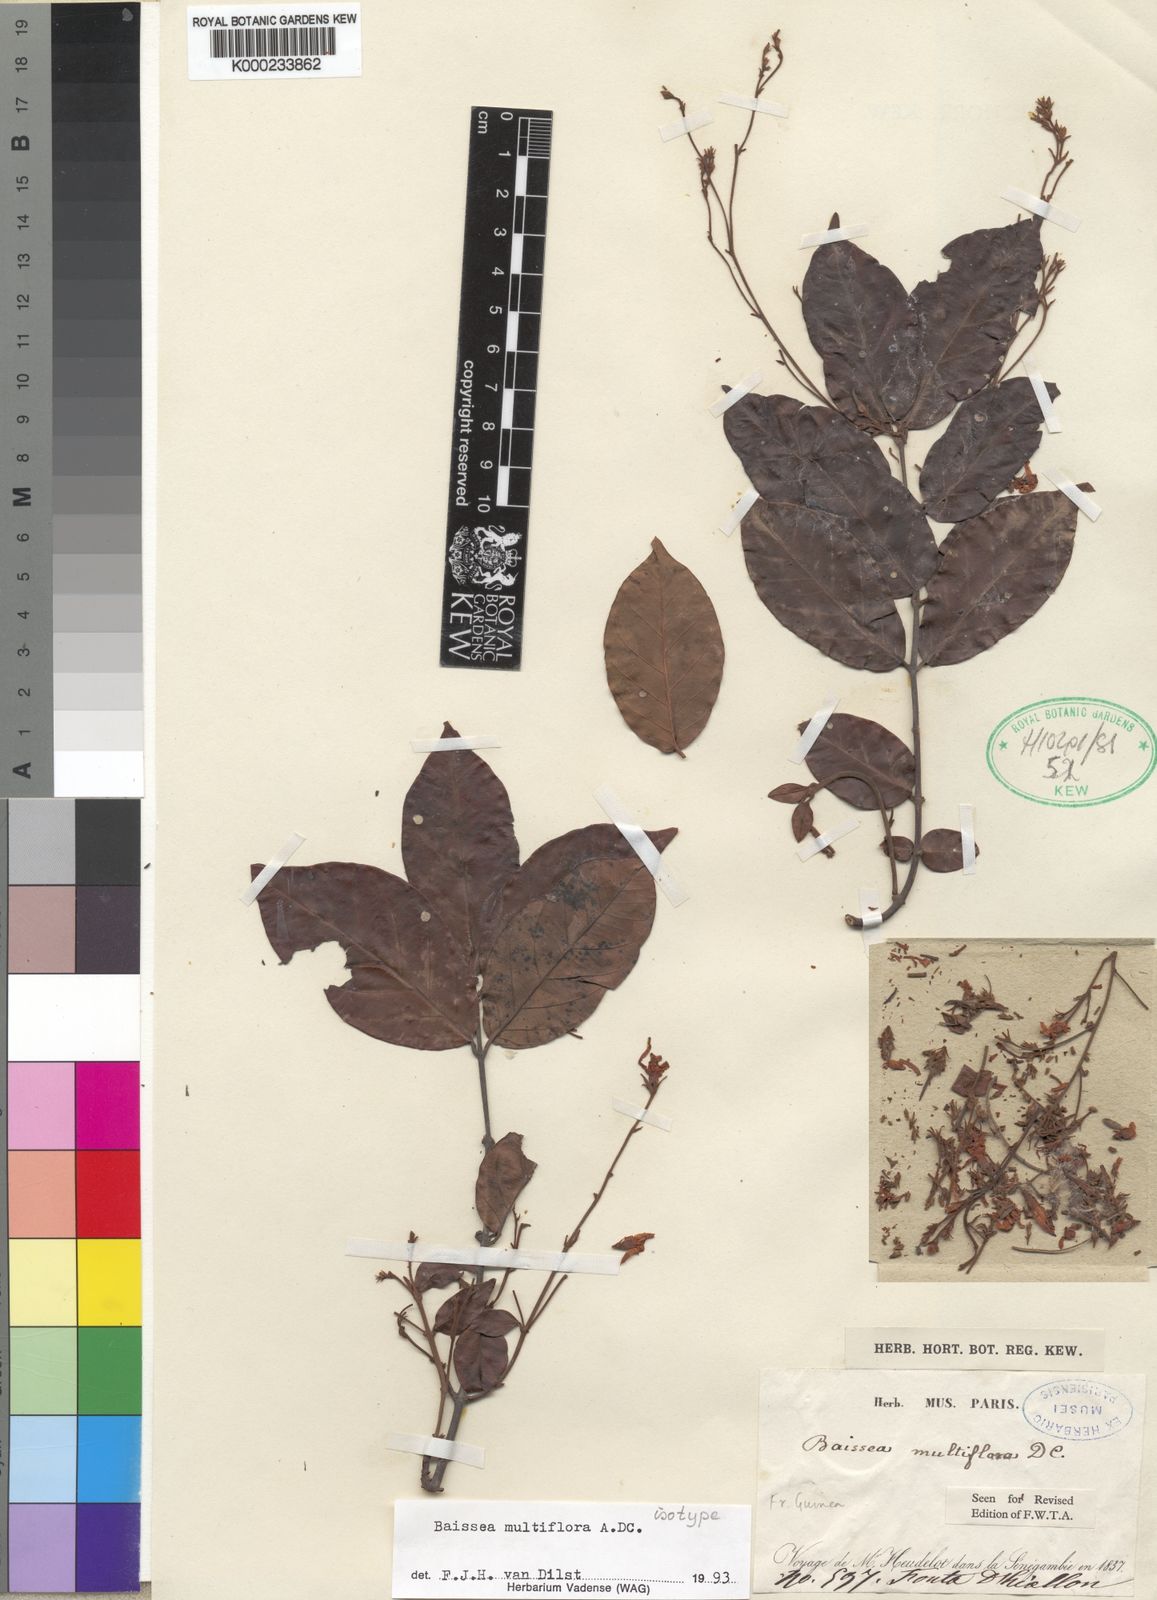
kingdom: Plantae
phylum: Tracheophyta
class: Magnoliopsida
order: Gentianales
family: Apocynaceae
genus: Baissea
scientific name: Baissea multiflora
